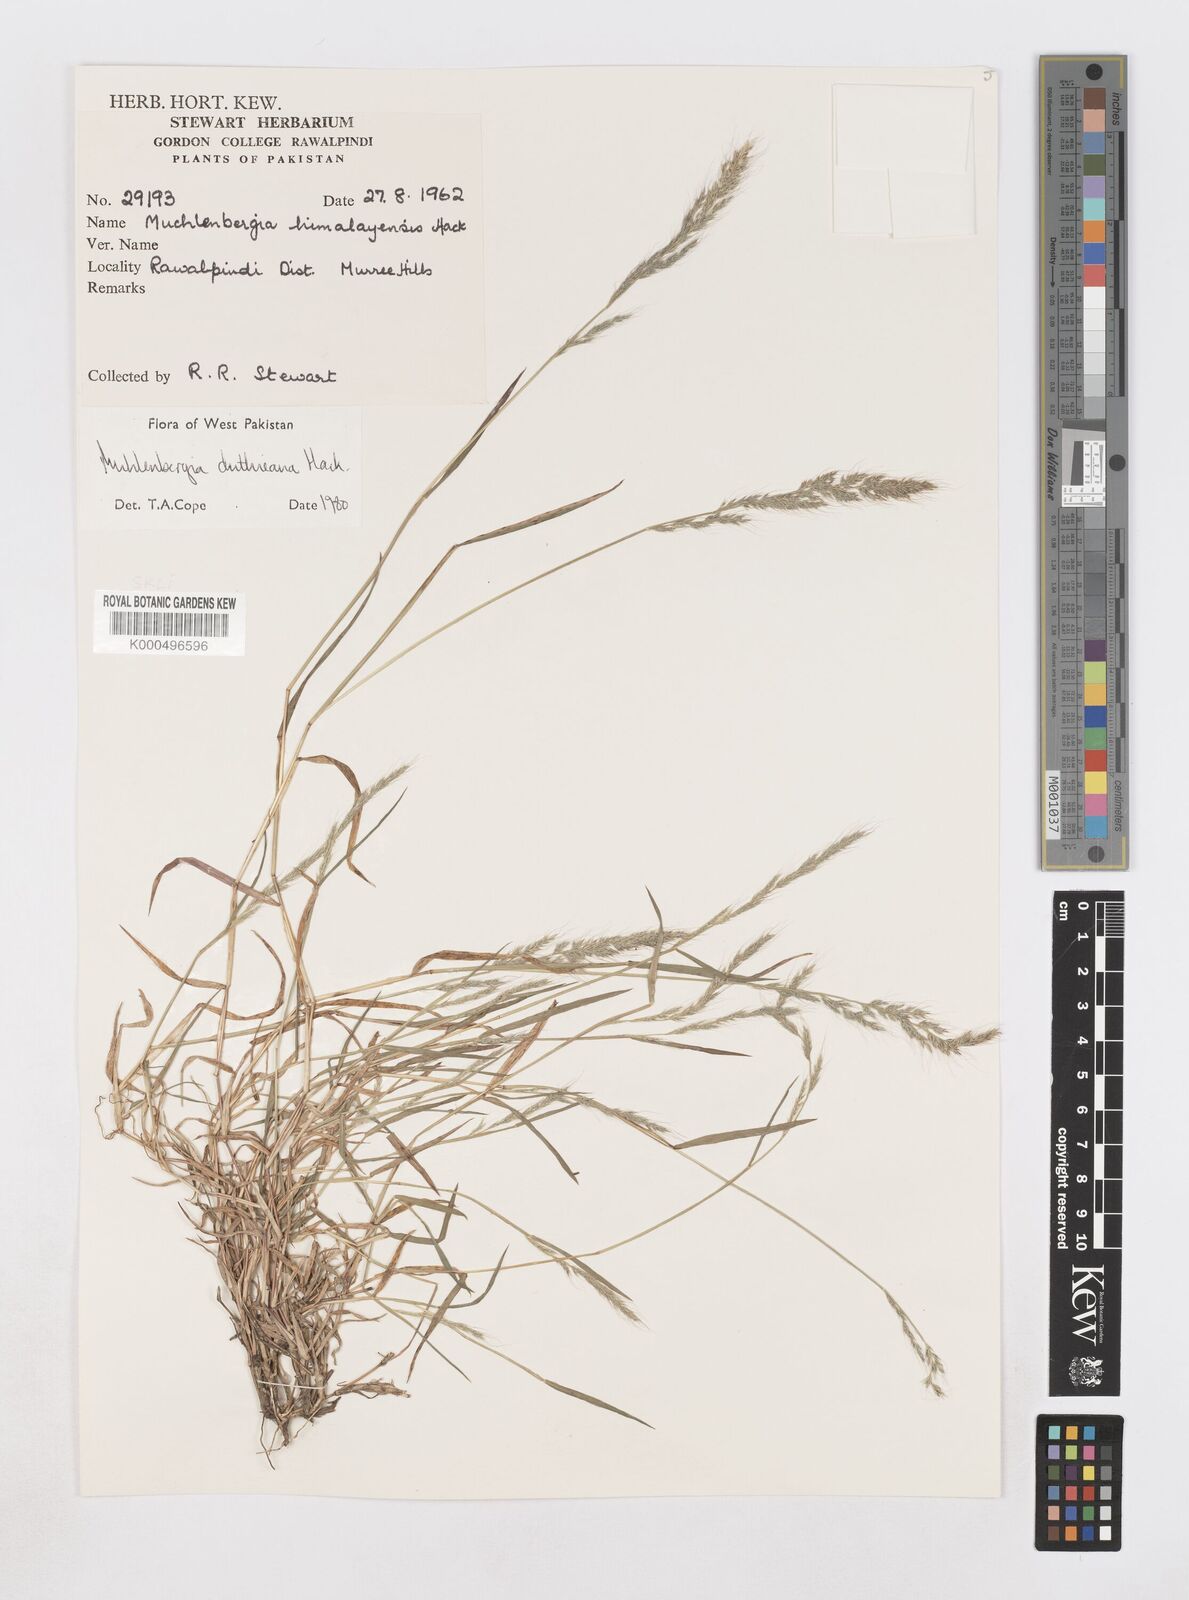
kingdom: Plantae
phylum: Tracheophyta
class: Liliopsida
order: Poales
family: Poaceae
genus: Muhlenbergia
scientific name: Muhlenbergia duthieana
